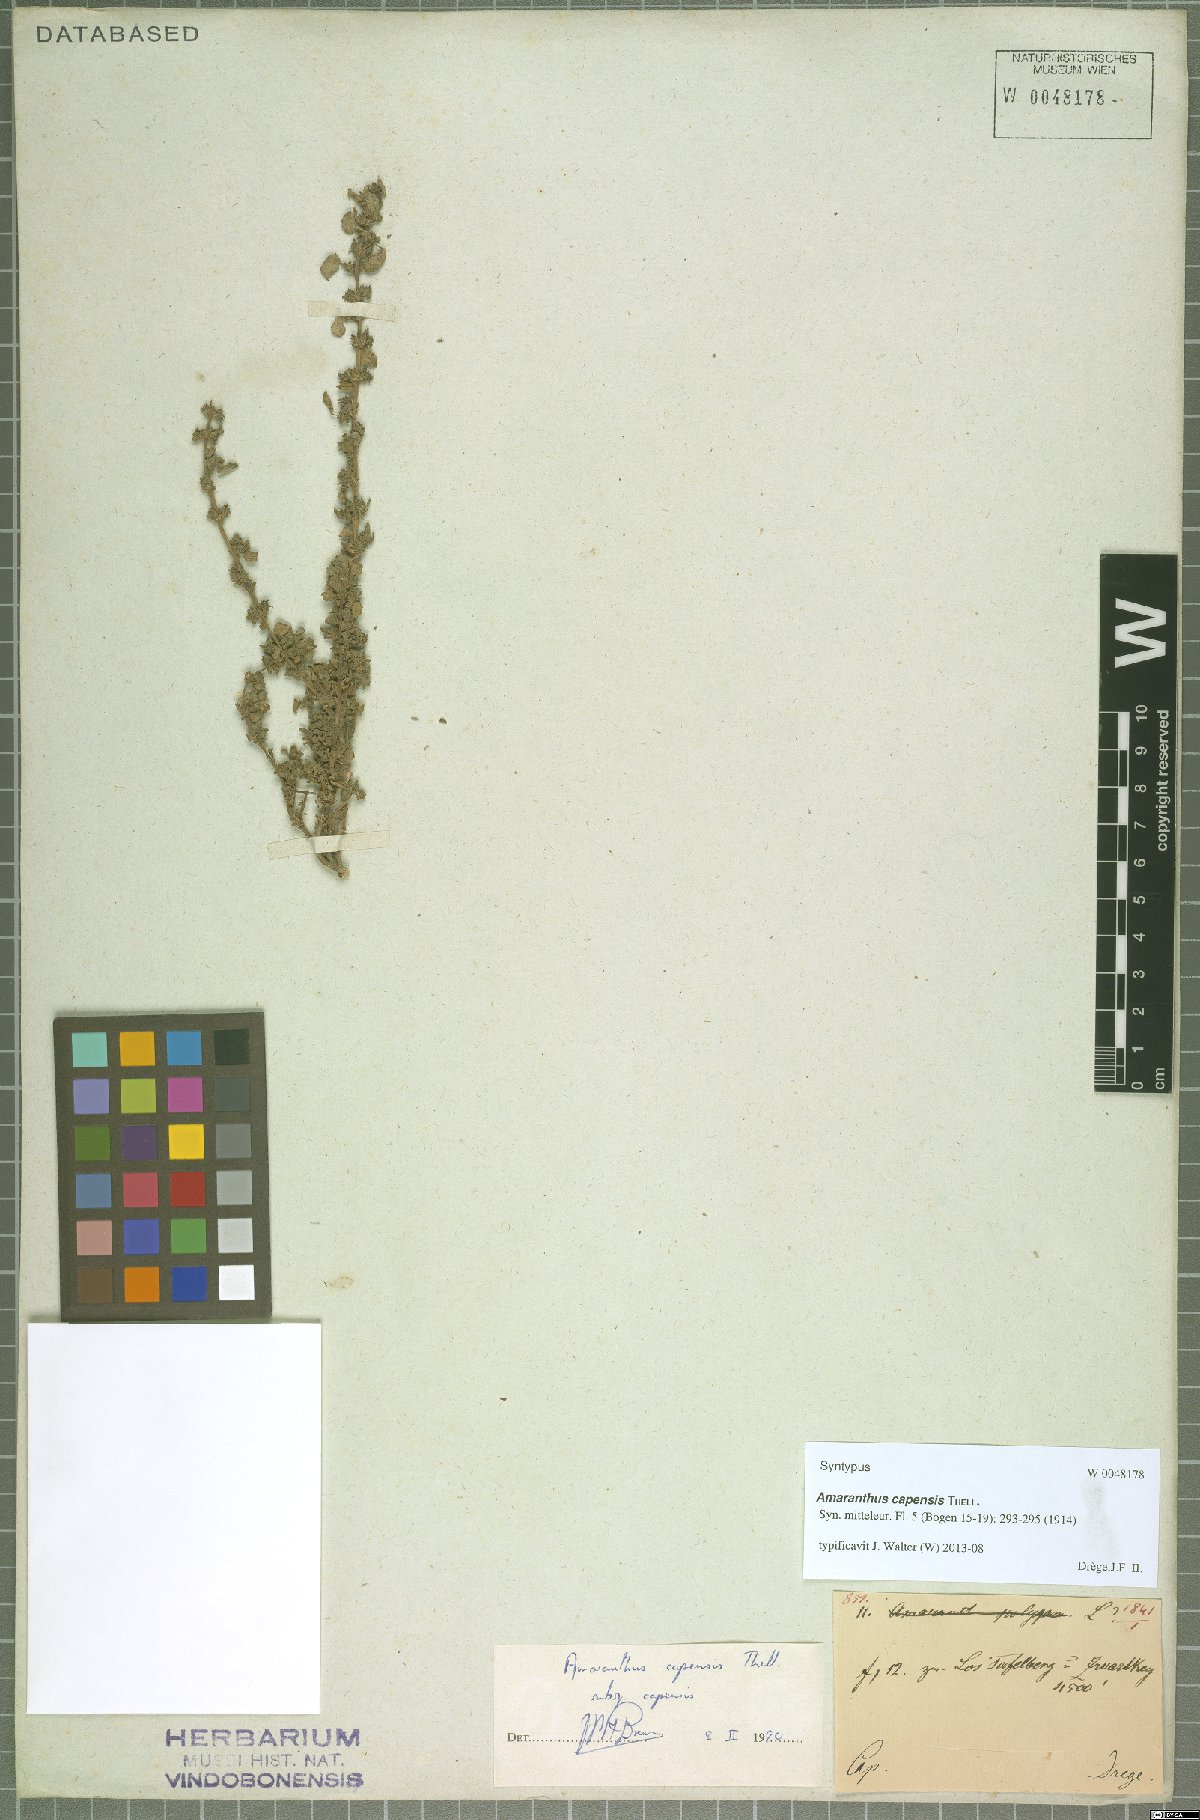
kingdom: Plantae
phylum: Tracheophyta
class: Magnoliopsida
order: Caryophyllales
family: Amaranthaceae
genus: Amaranthus
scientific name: Amaranthus capensis
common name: Cape pigweed
